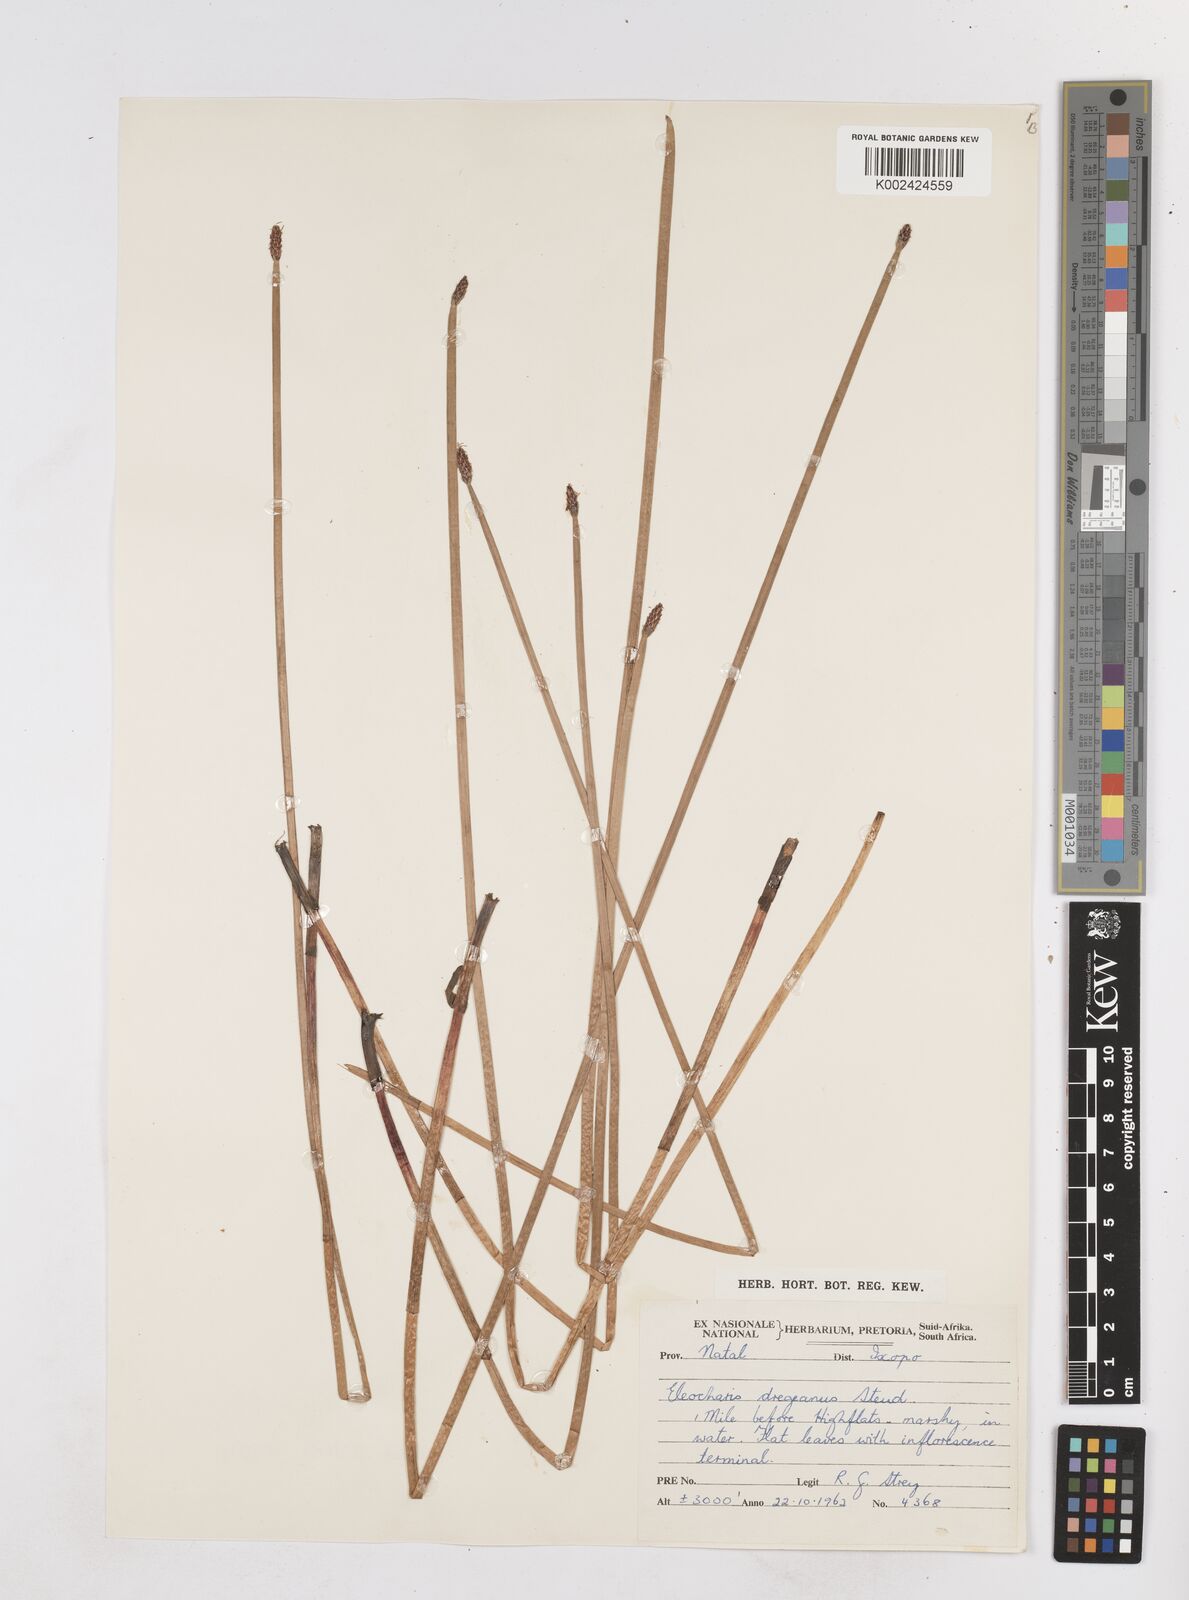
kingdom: Plantae
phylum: Tracheophyta
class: Liliopsida
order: Poales
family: Cyperaceae
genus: Eleocharis
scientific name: Eleocharis
